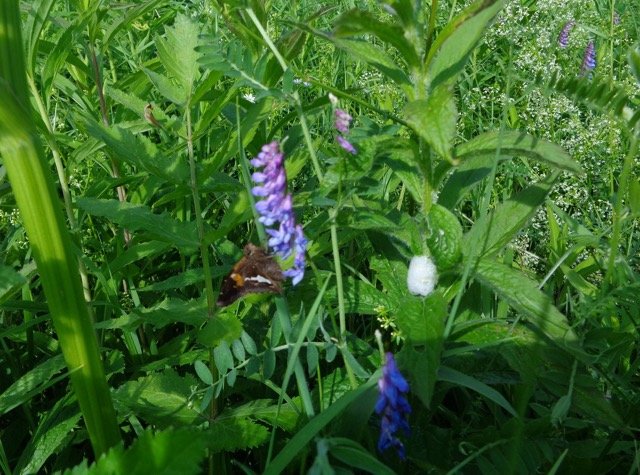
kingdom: Animalia
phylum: Arthropoda
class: Insecta
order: Lepidoptera
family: Hesperiidae
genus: Epargyreus
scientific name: Epargyreus clarus
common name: Silver-spotted Skipper
